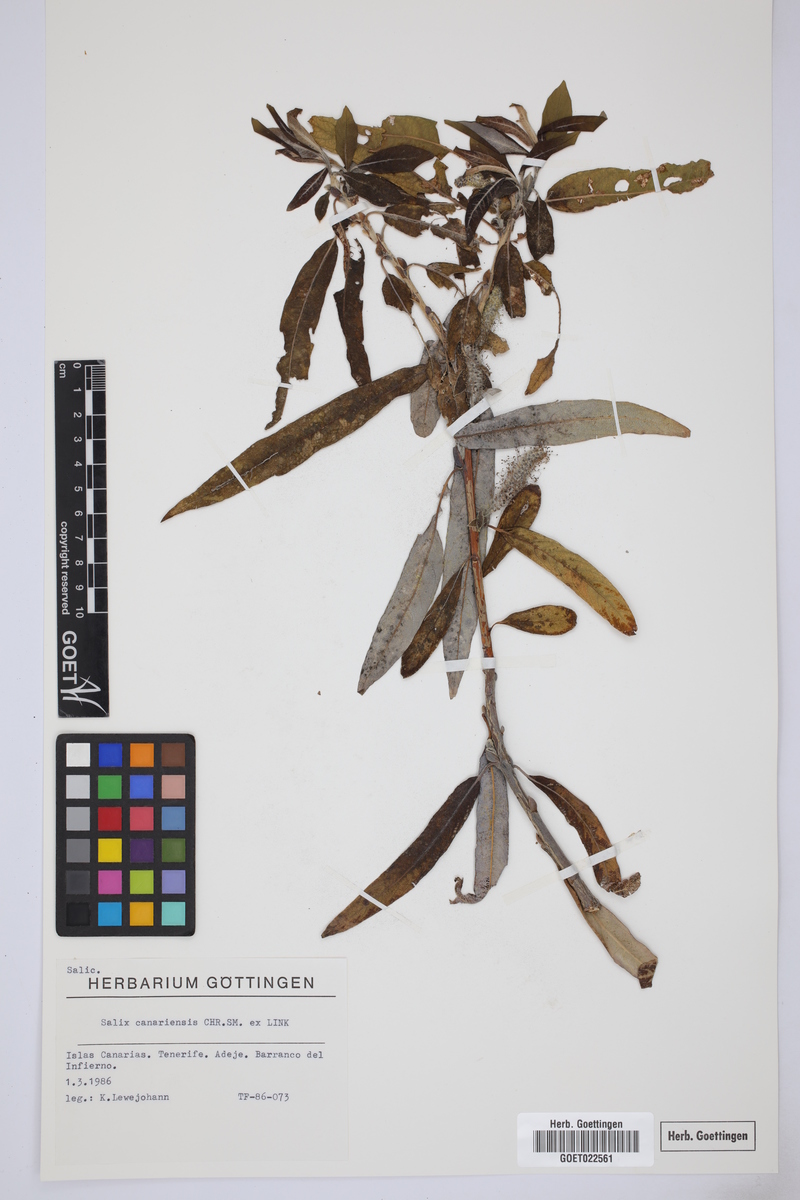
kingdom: Plantae
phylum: Tracheophyta
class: Magnoliopsida
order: Malpighiales
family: Salicaceae
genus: Salix
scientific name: Salix canariensis
